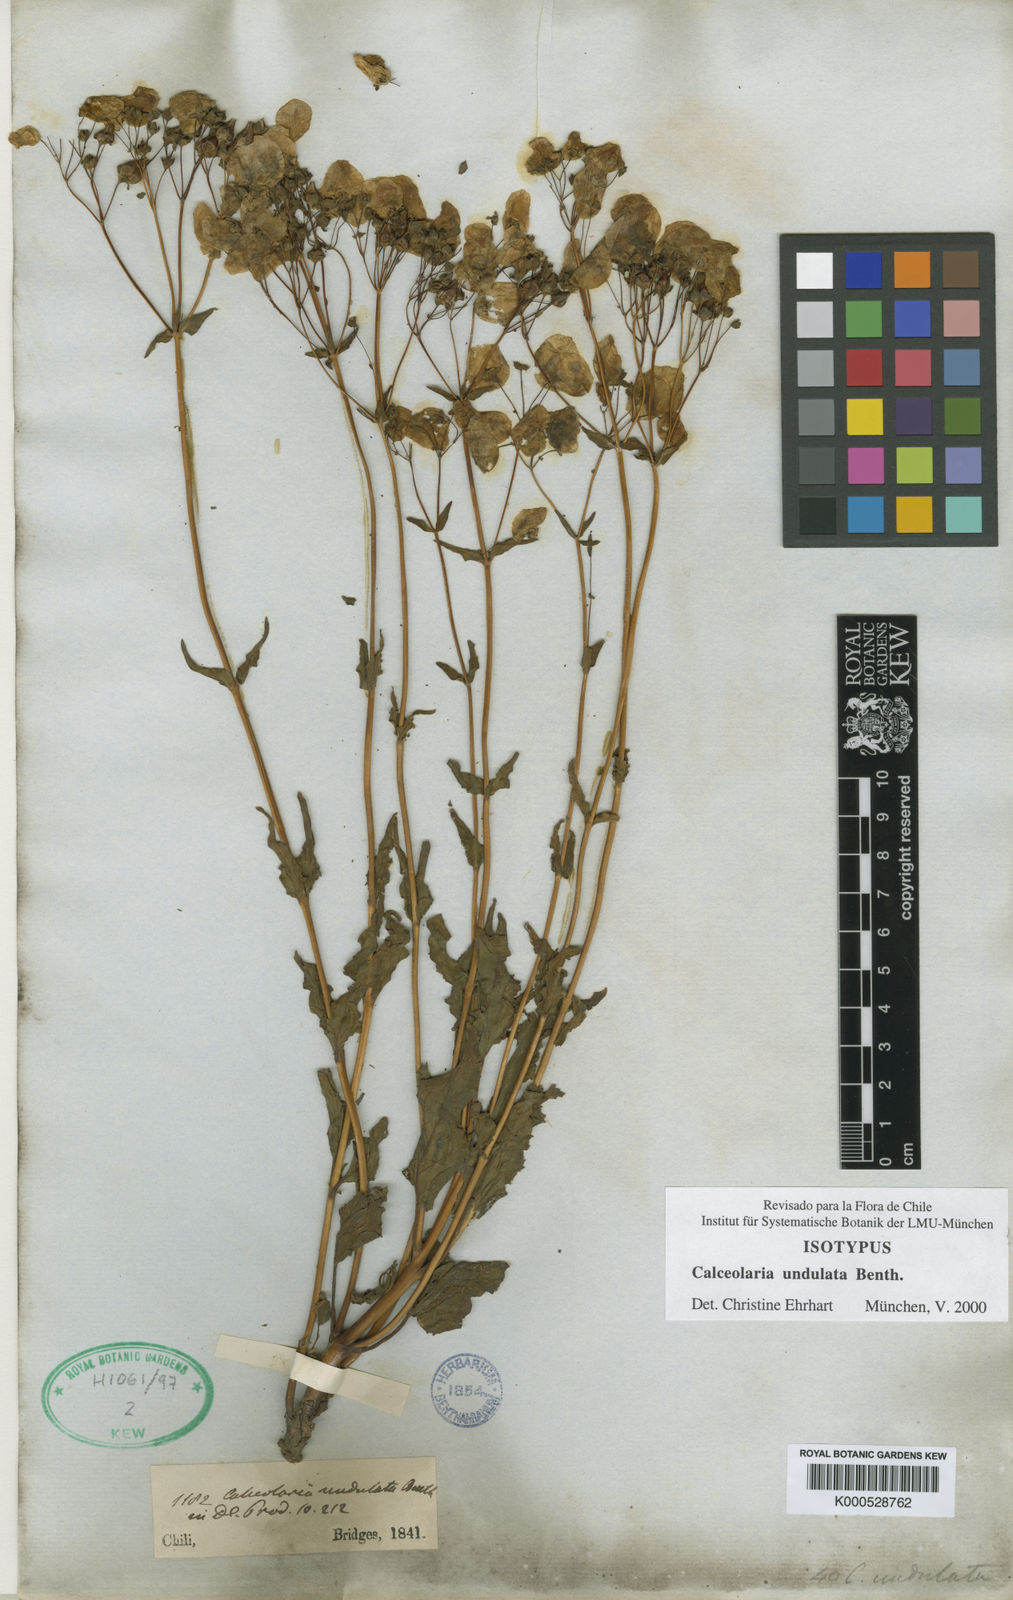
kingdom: Plantae
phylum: Tracheophyta
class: Magnoliopsida
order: Lamiales
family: Calceolariaceae
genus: Calceolaria
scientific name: Calceolaria undulata
